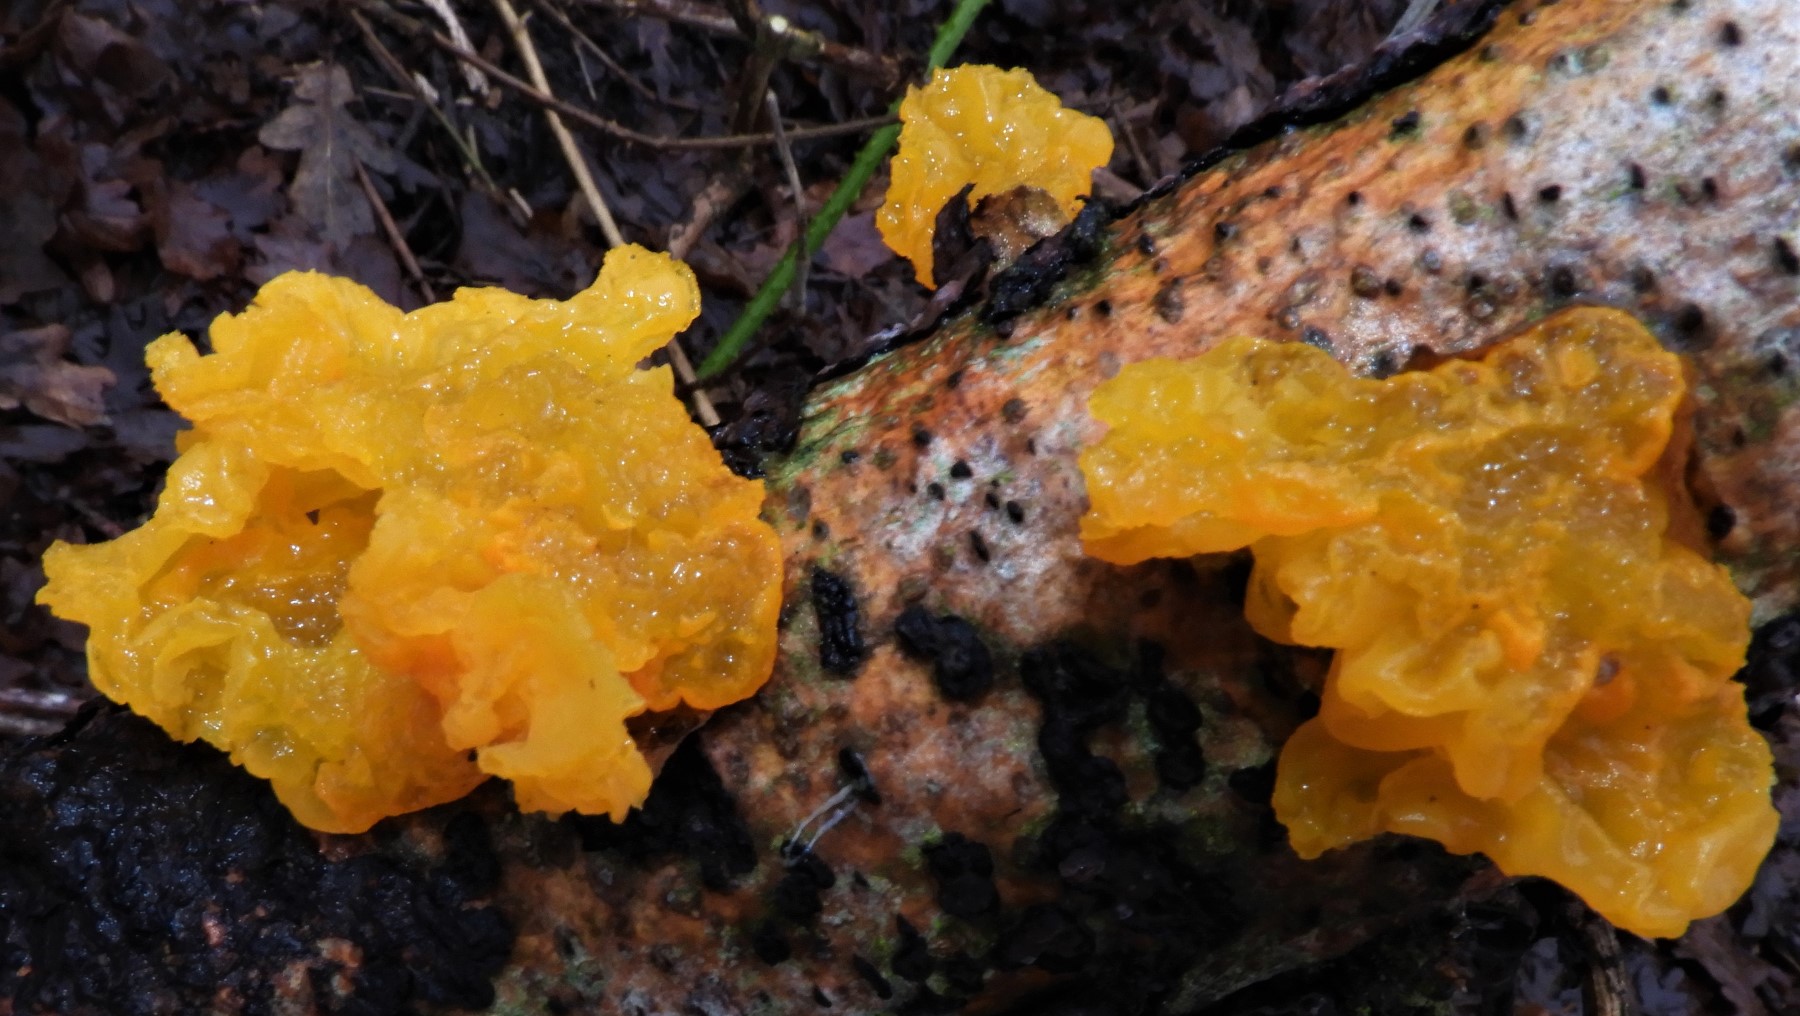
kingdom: Fungi
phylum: Basidiomycota
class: Tremellomycetes
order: Tremellales
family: Tremellaceae
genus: Tremella
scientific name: Tremella mesenterica
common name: gul bævresvamp
